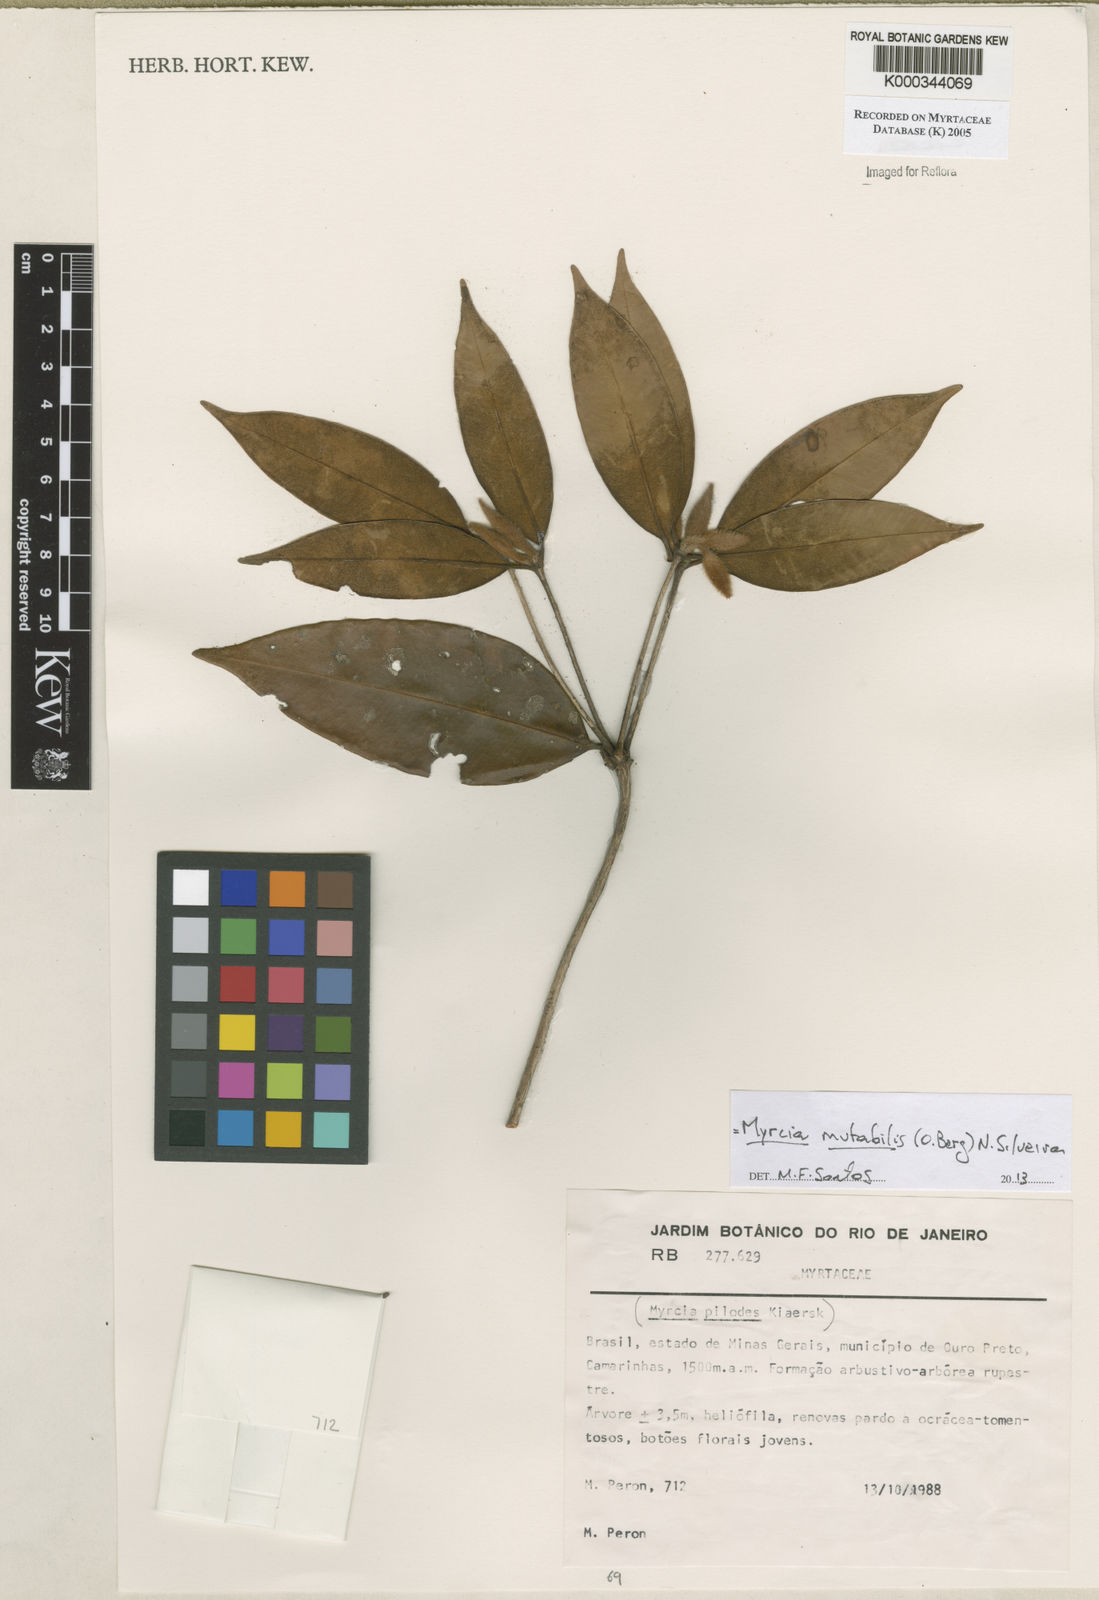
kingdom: Plantae
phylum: Tracheophyta
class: Magnoliopsida
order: Myrtales
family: Myrtaceae
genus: Myrcia
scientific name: Myrcia mutabilis
